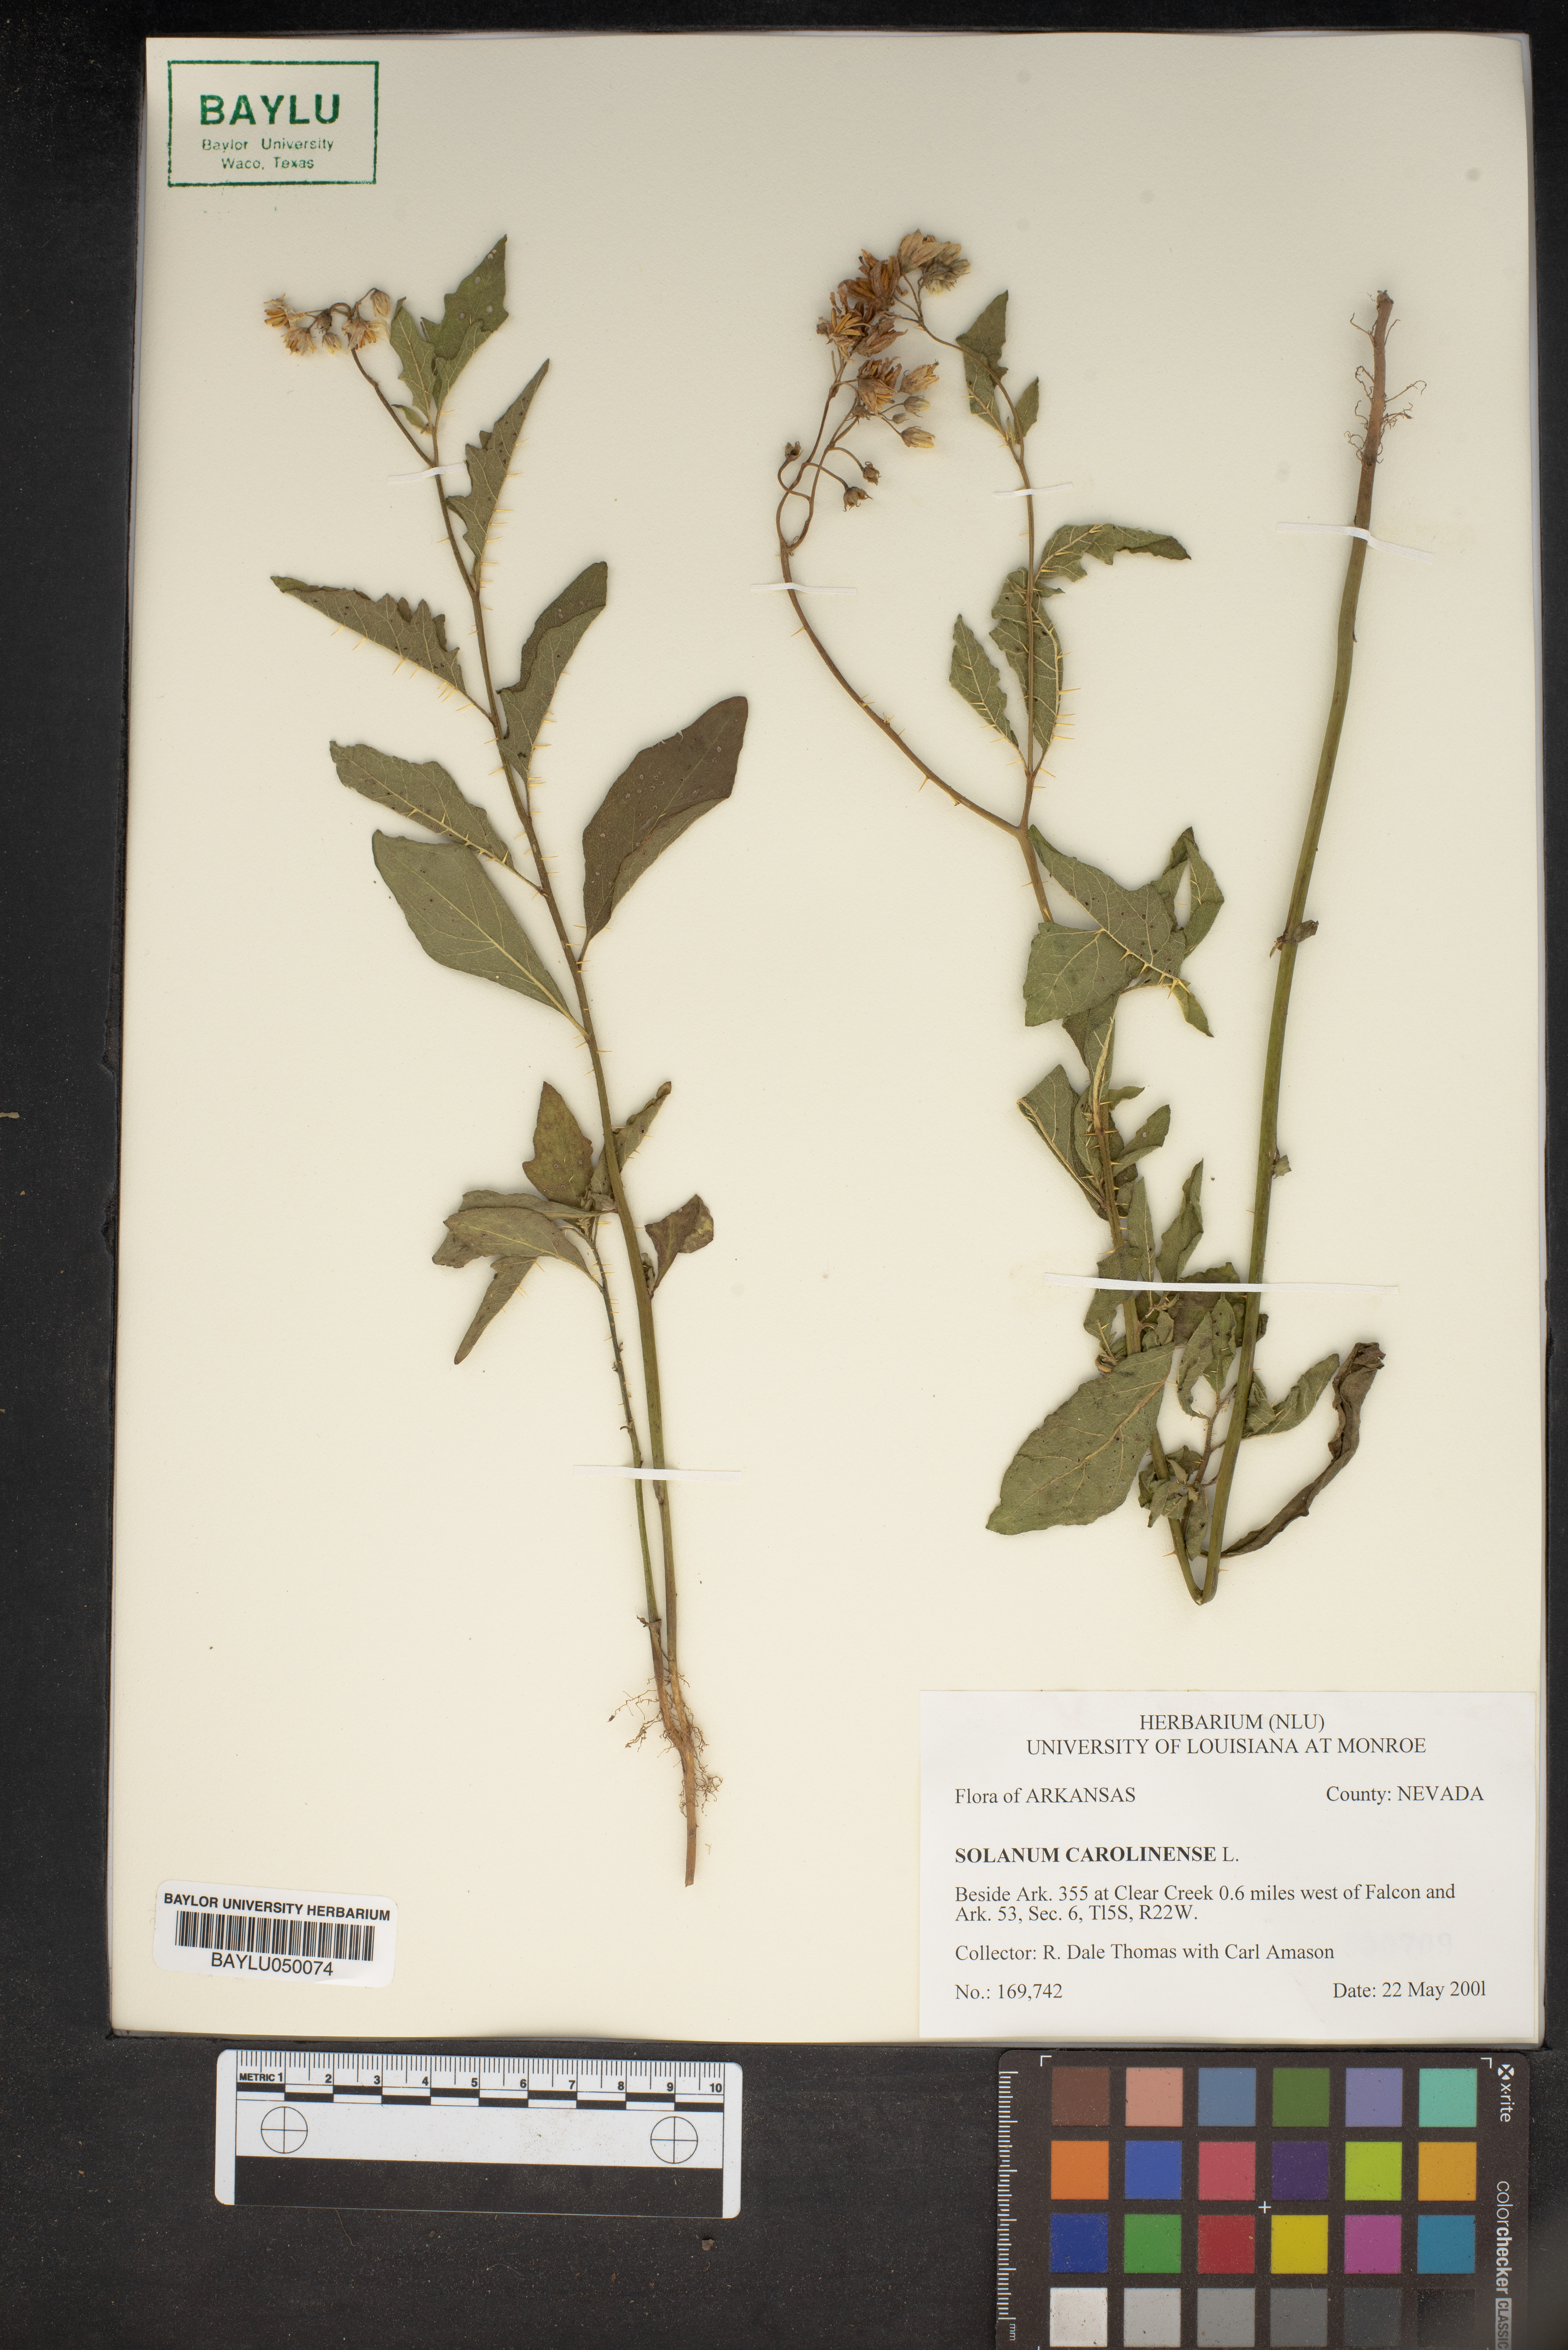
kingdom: Plantae
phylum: Tracheophyta
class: Magnoliopsida
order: Solanales
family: Solanaceae
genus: Solanum
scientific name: Solanum carolinense
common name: Horse-nettle
